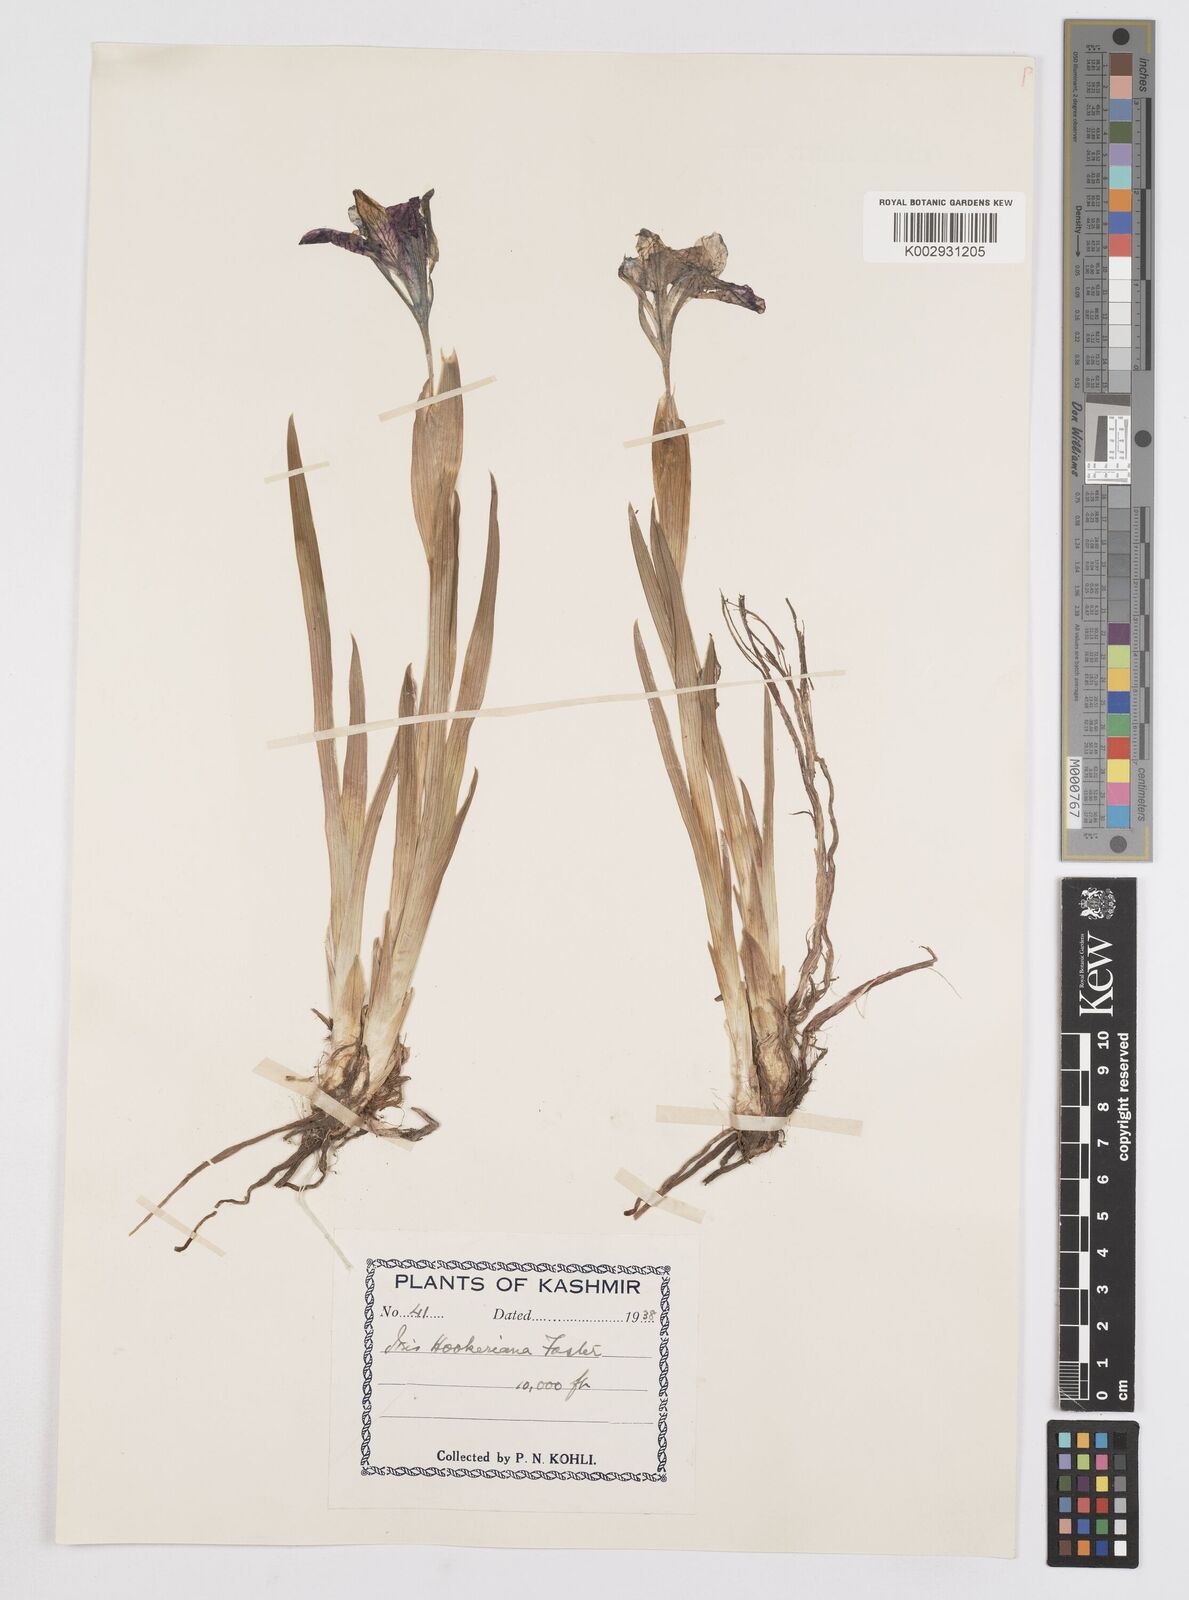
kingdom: Plantae
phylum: Tracheophyta
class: Liliopsida
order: Asparagales
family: Iridaceae
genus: Iris
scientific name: Iris hookeriana
